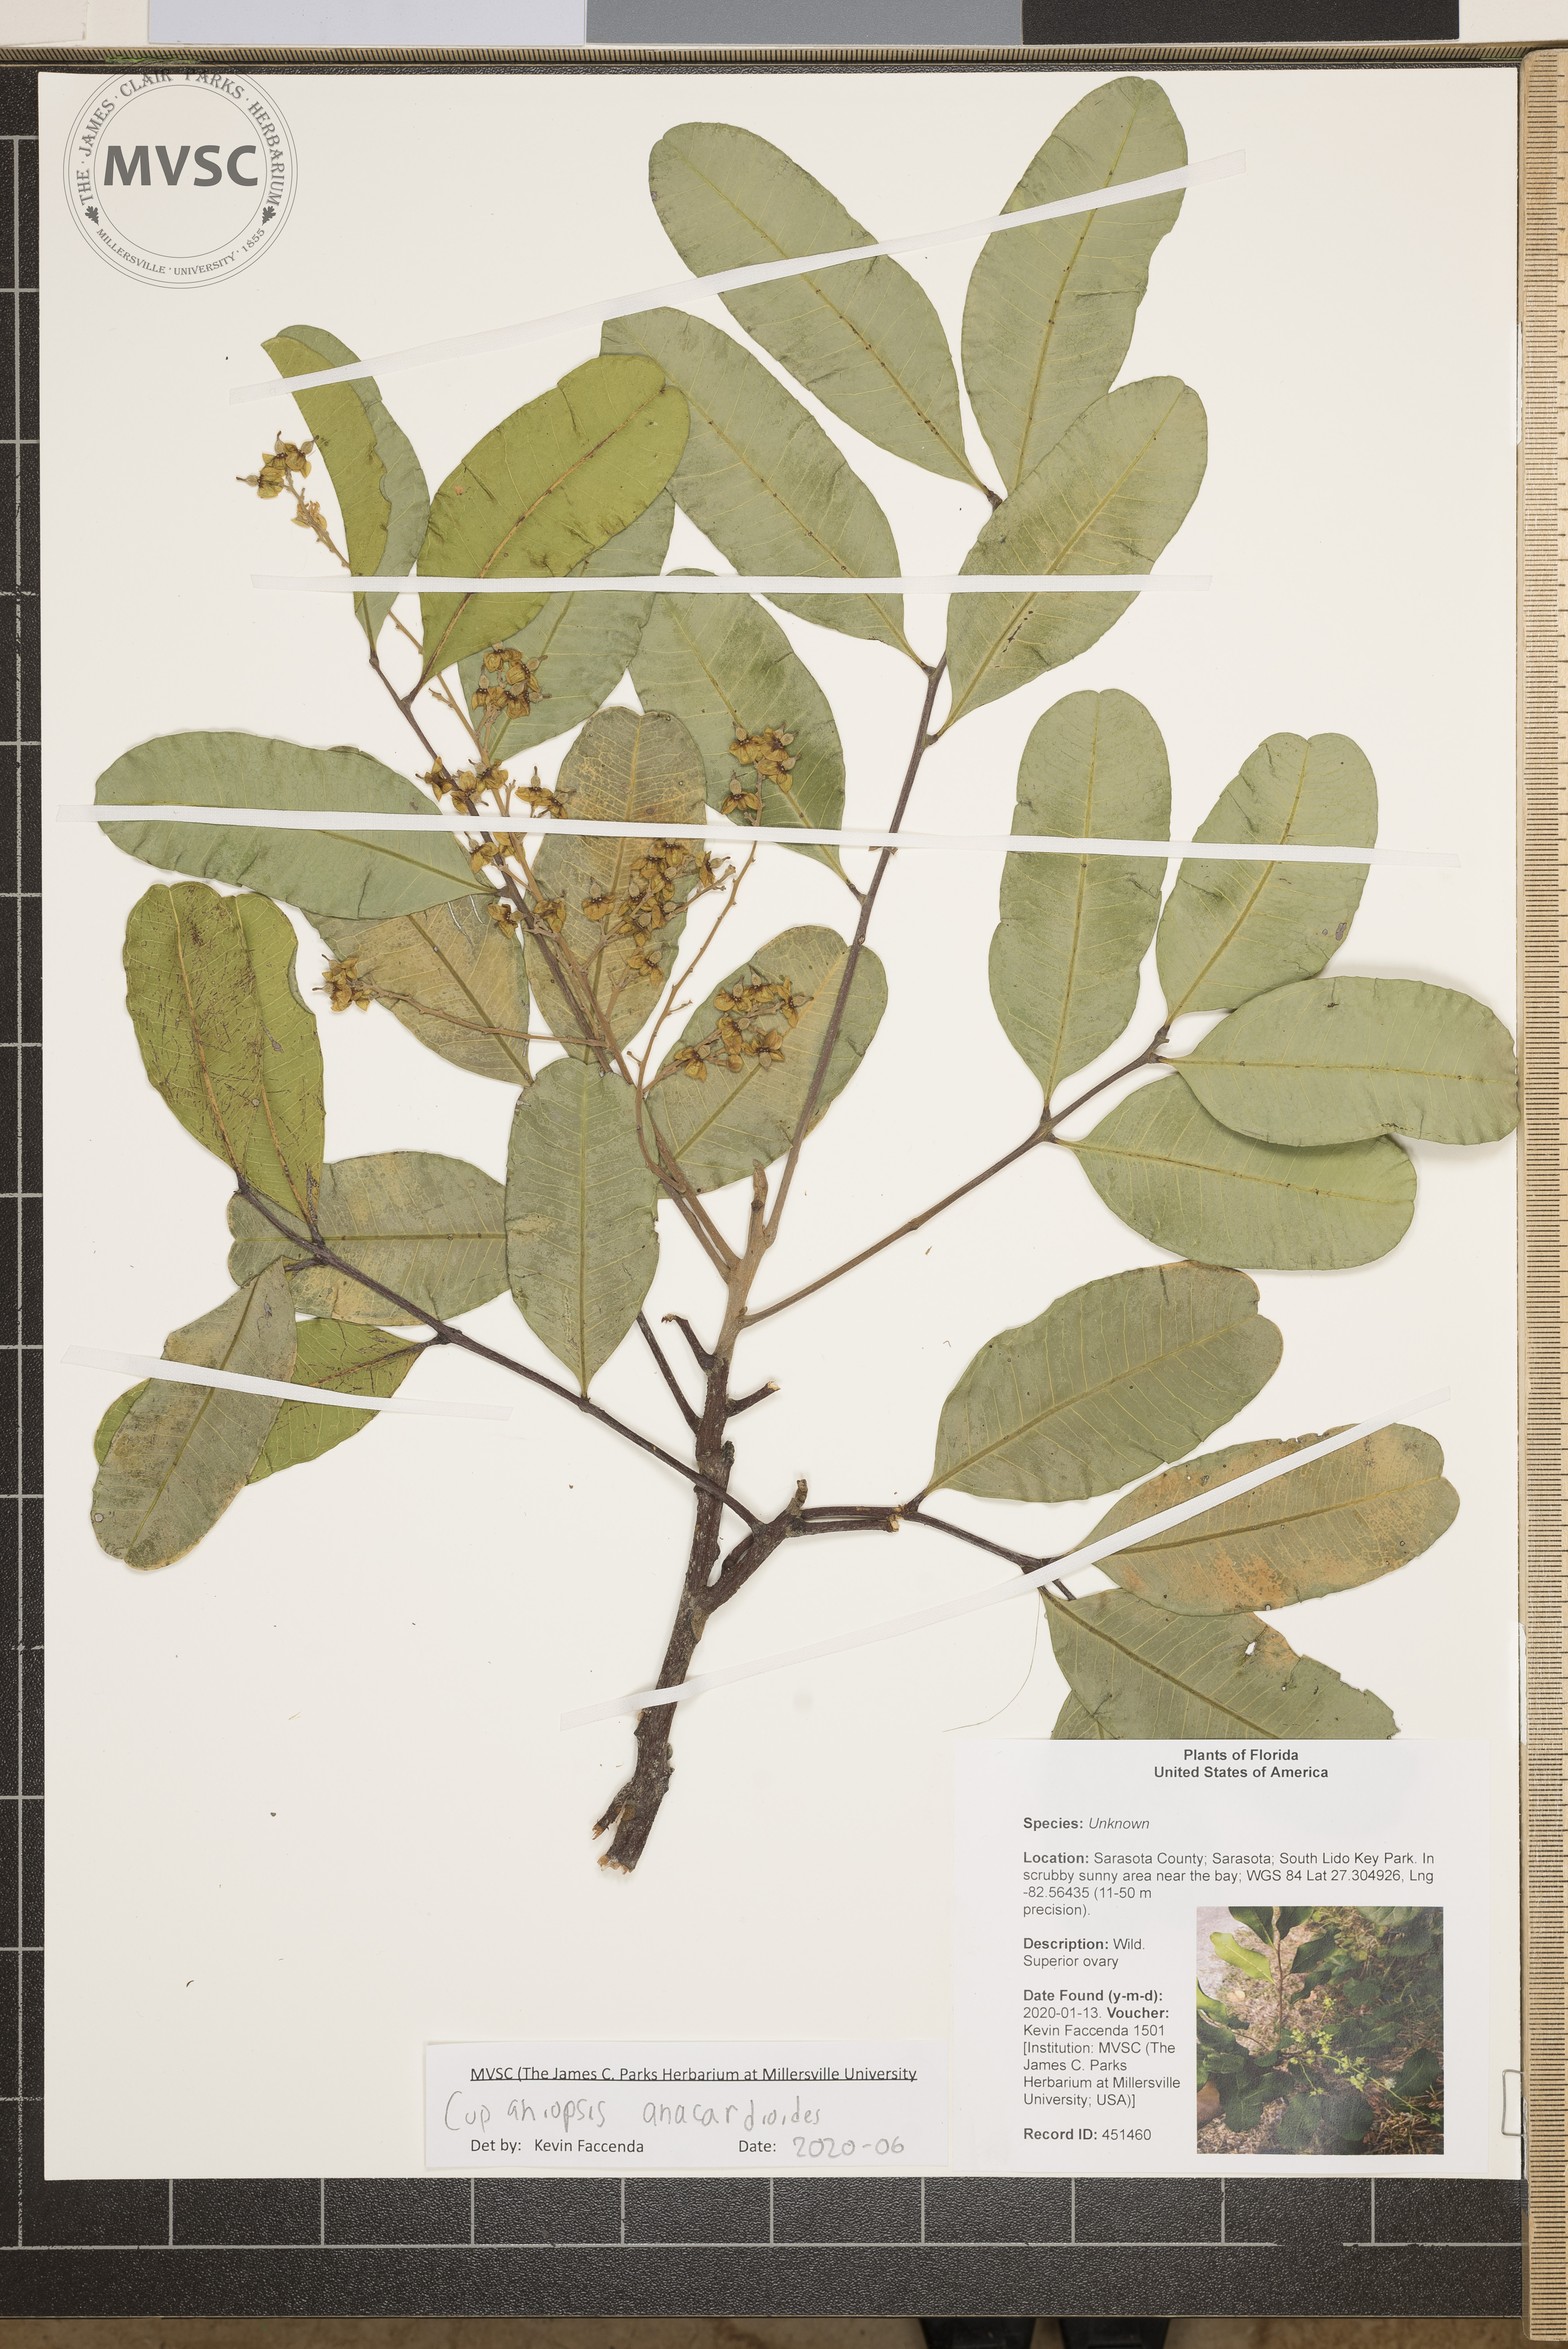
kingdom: Plantae
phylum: Tracheophyta
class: Magnoliopsida
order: Sapindales
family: Sapindaceae
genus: Cupaniopsis
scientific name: Cupaniopsis anacardioides
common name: Carrotwood
